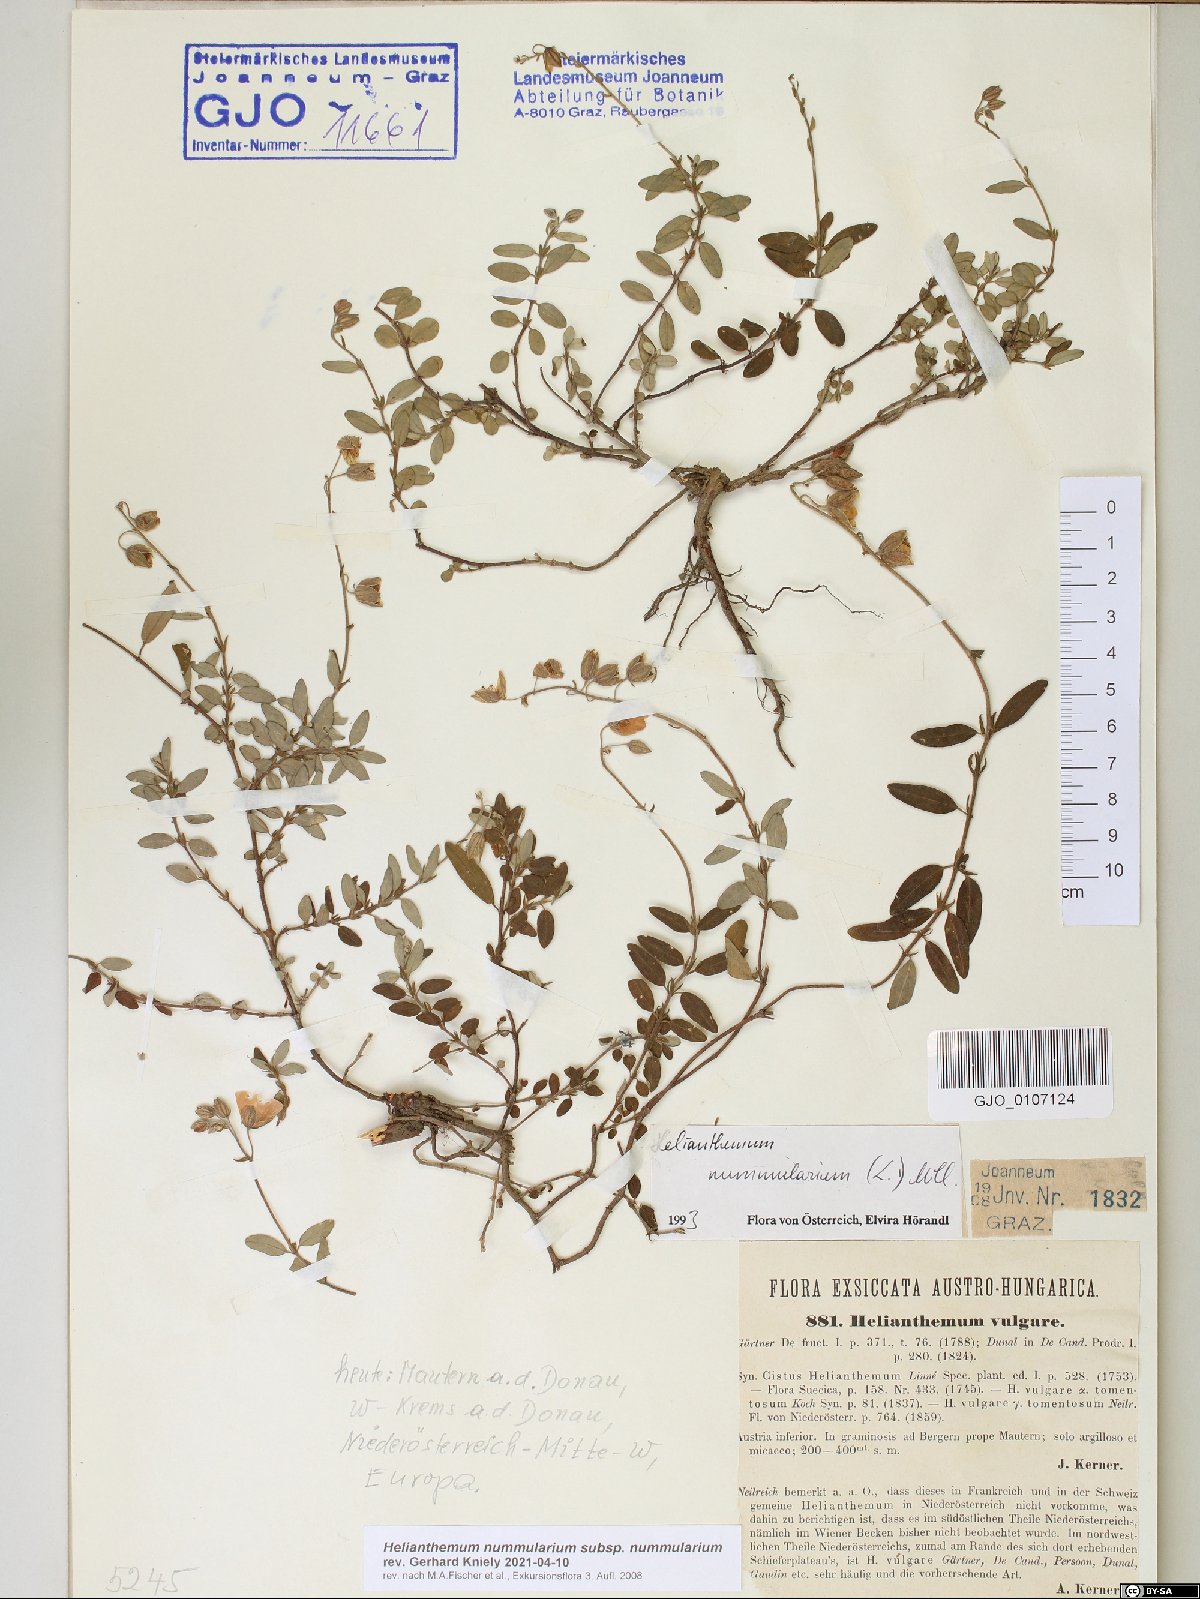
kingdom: Plantae
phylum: Tracheophyta
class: Magnoliopsida
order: Malvales
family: Cistaceae
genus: Helianthemum
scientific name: Helianthemum nummularium
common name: Common rock-rose
